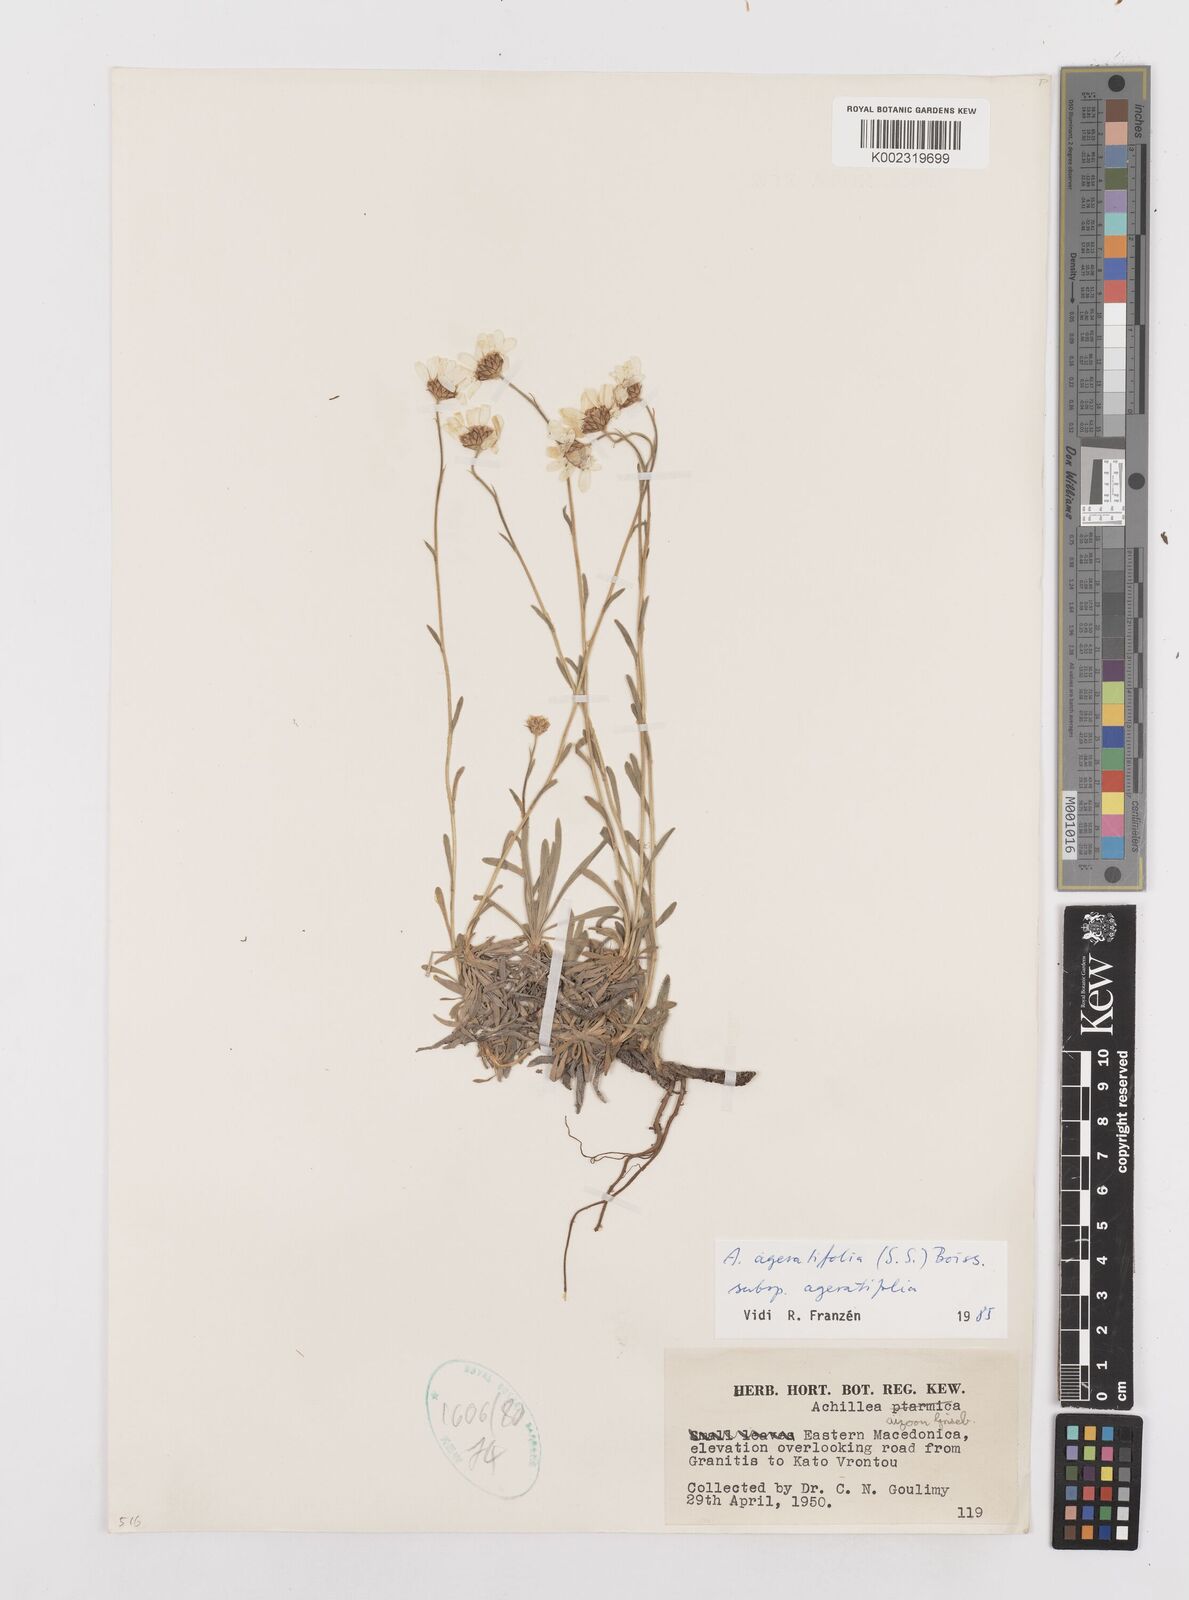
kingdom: Plantae
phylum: Tracheophyta
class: Magnoliopsida
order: Asterales
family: Asteraceae
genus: Achillea
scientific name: Achillea ageratifolia
